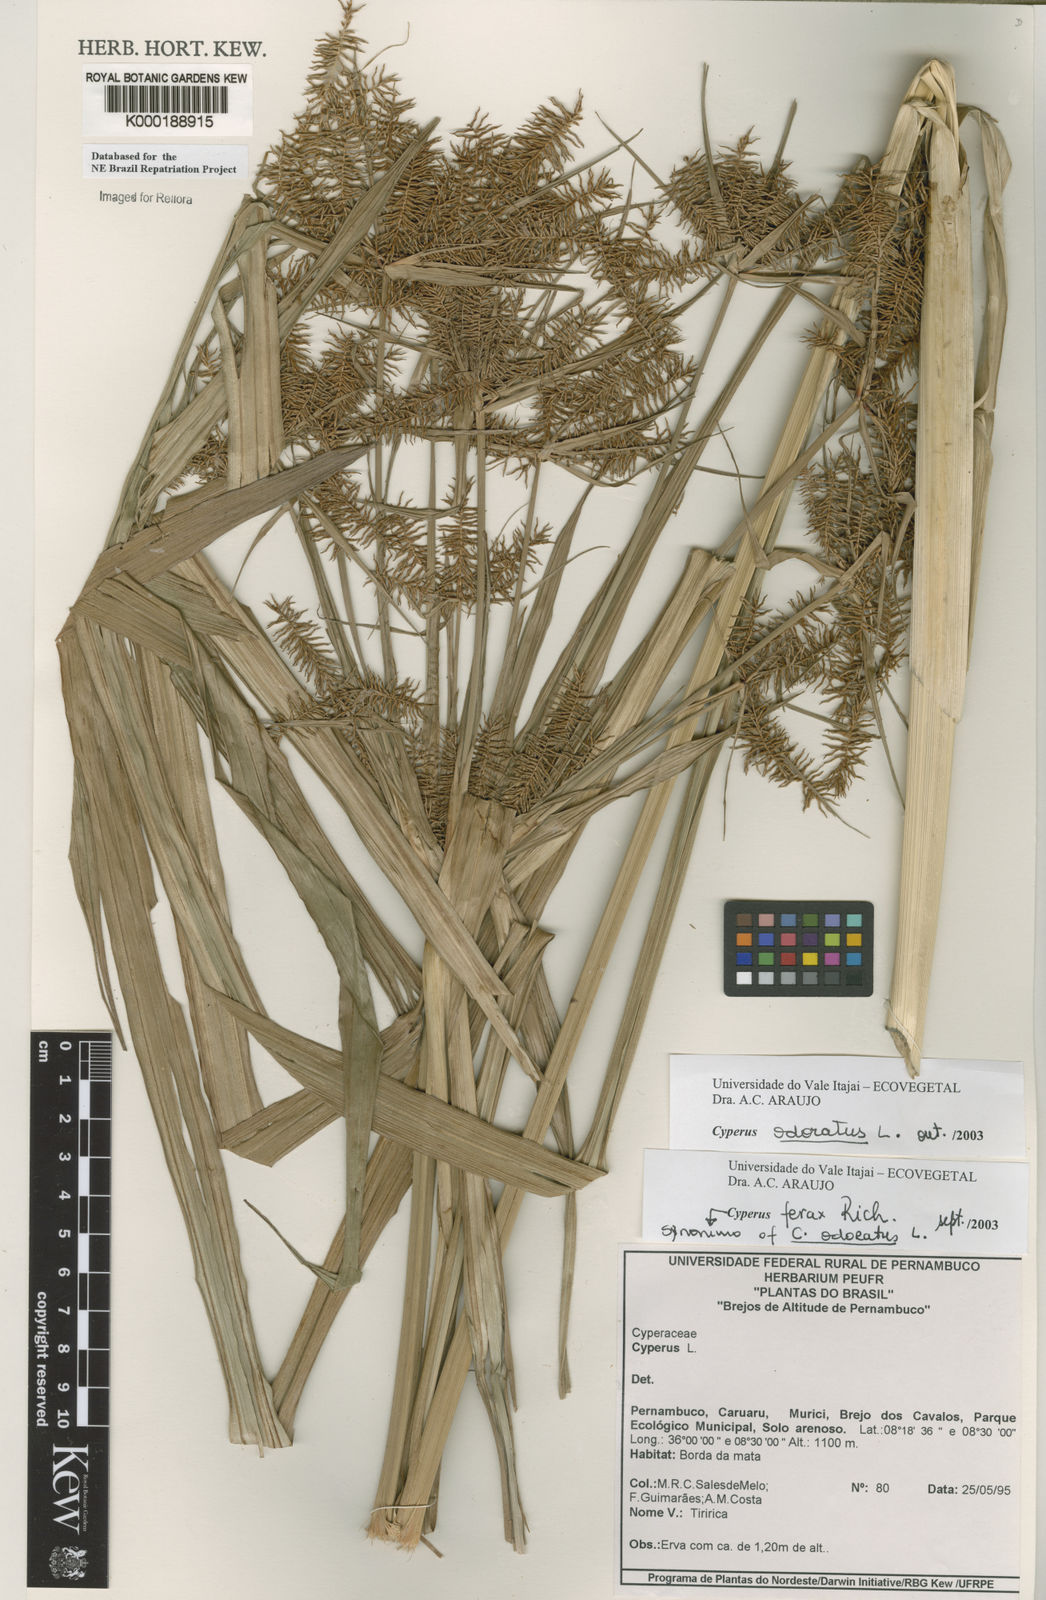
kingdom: Plantae
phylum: Tracheophyta
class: Liliopsida
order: Poales
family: Cyperaceae
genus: Cyperus
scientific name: Cyperus odoratus
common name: Fragrant flatsedge
